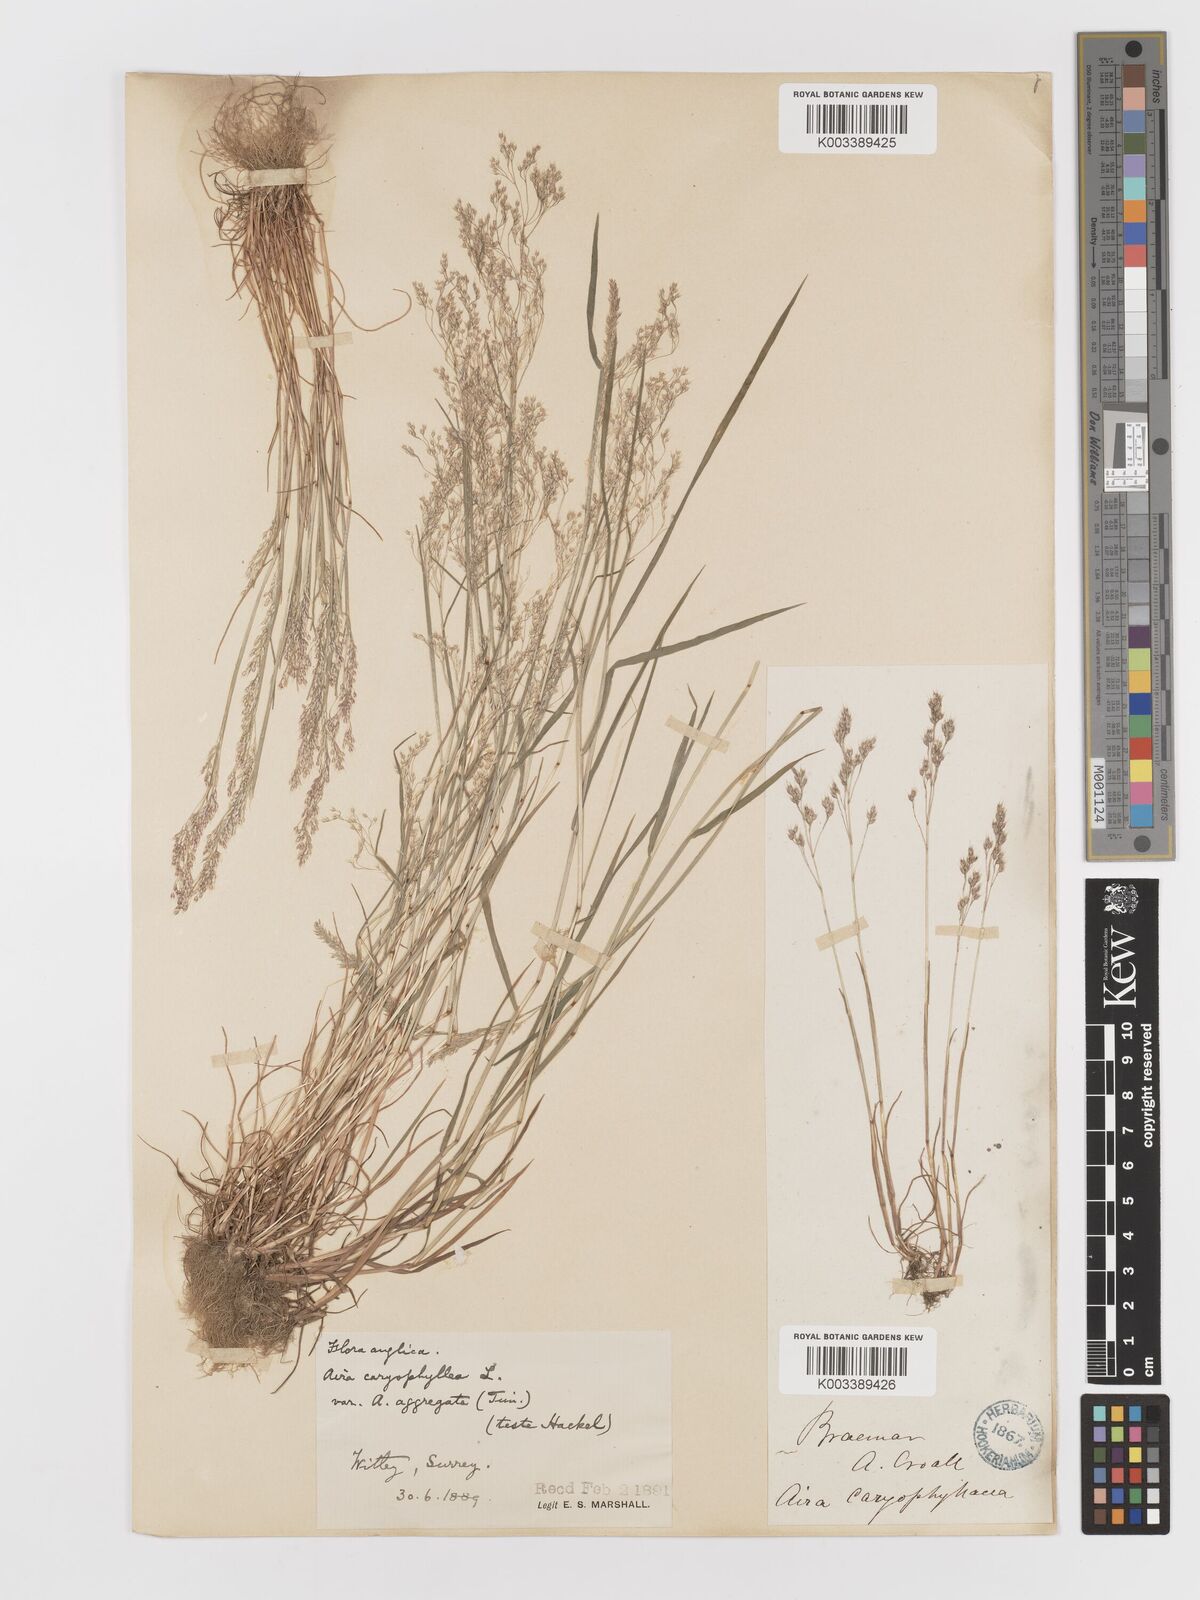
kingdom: Plantae
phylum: Tracheophyta
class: Liliopsida
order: Poales
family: Poaceae
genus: Aira
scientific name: Aira caryophyllea
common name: Silver hairgrass
